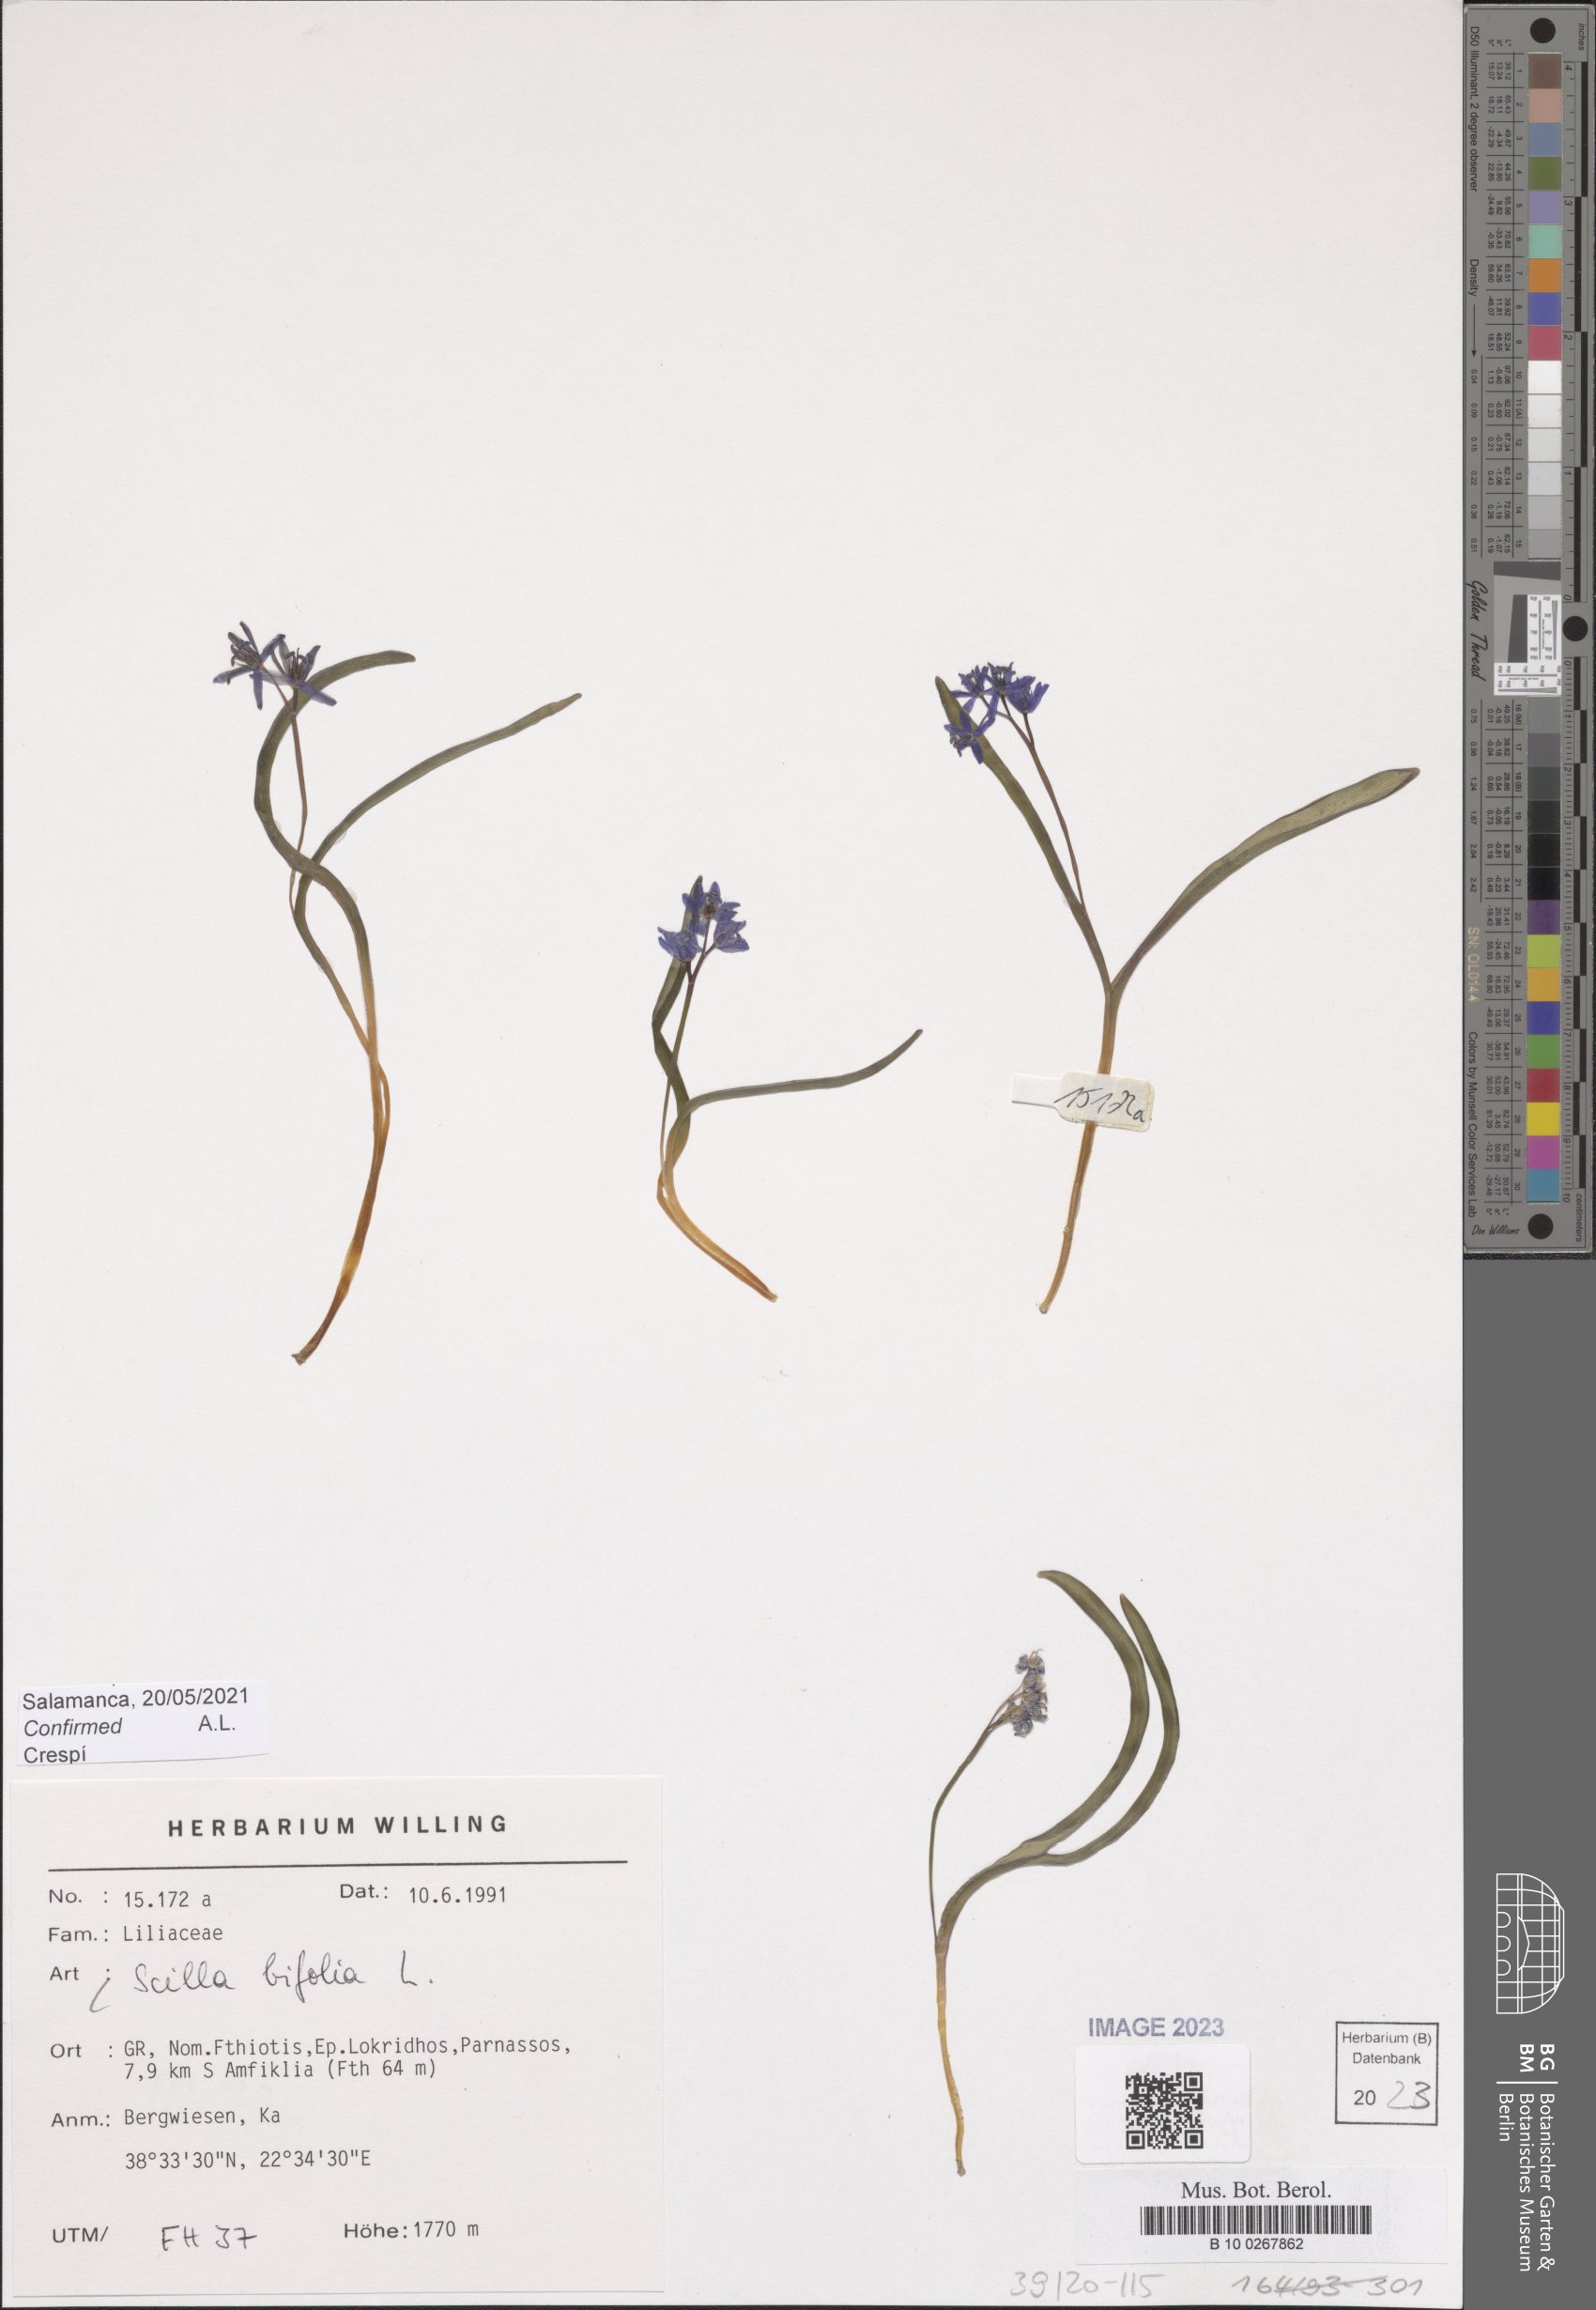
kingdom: Plantae
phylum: Tracheophyta
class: Liliopsida
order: Asparagales
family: Asparagaceae
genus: Scilla
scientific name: Scilla bifolia
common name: Alpine squill
